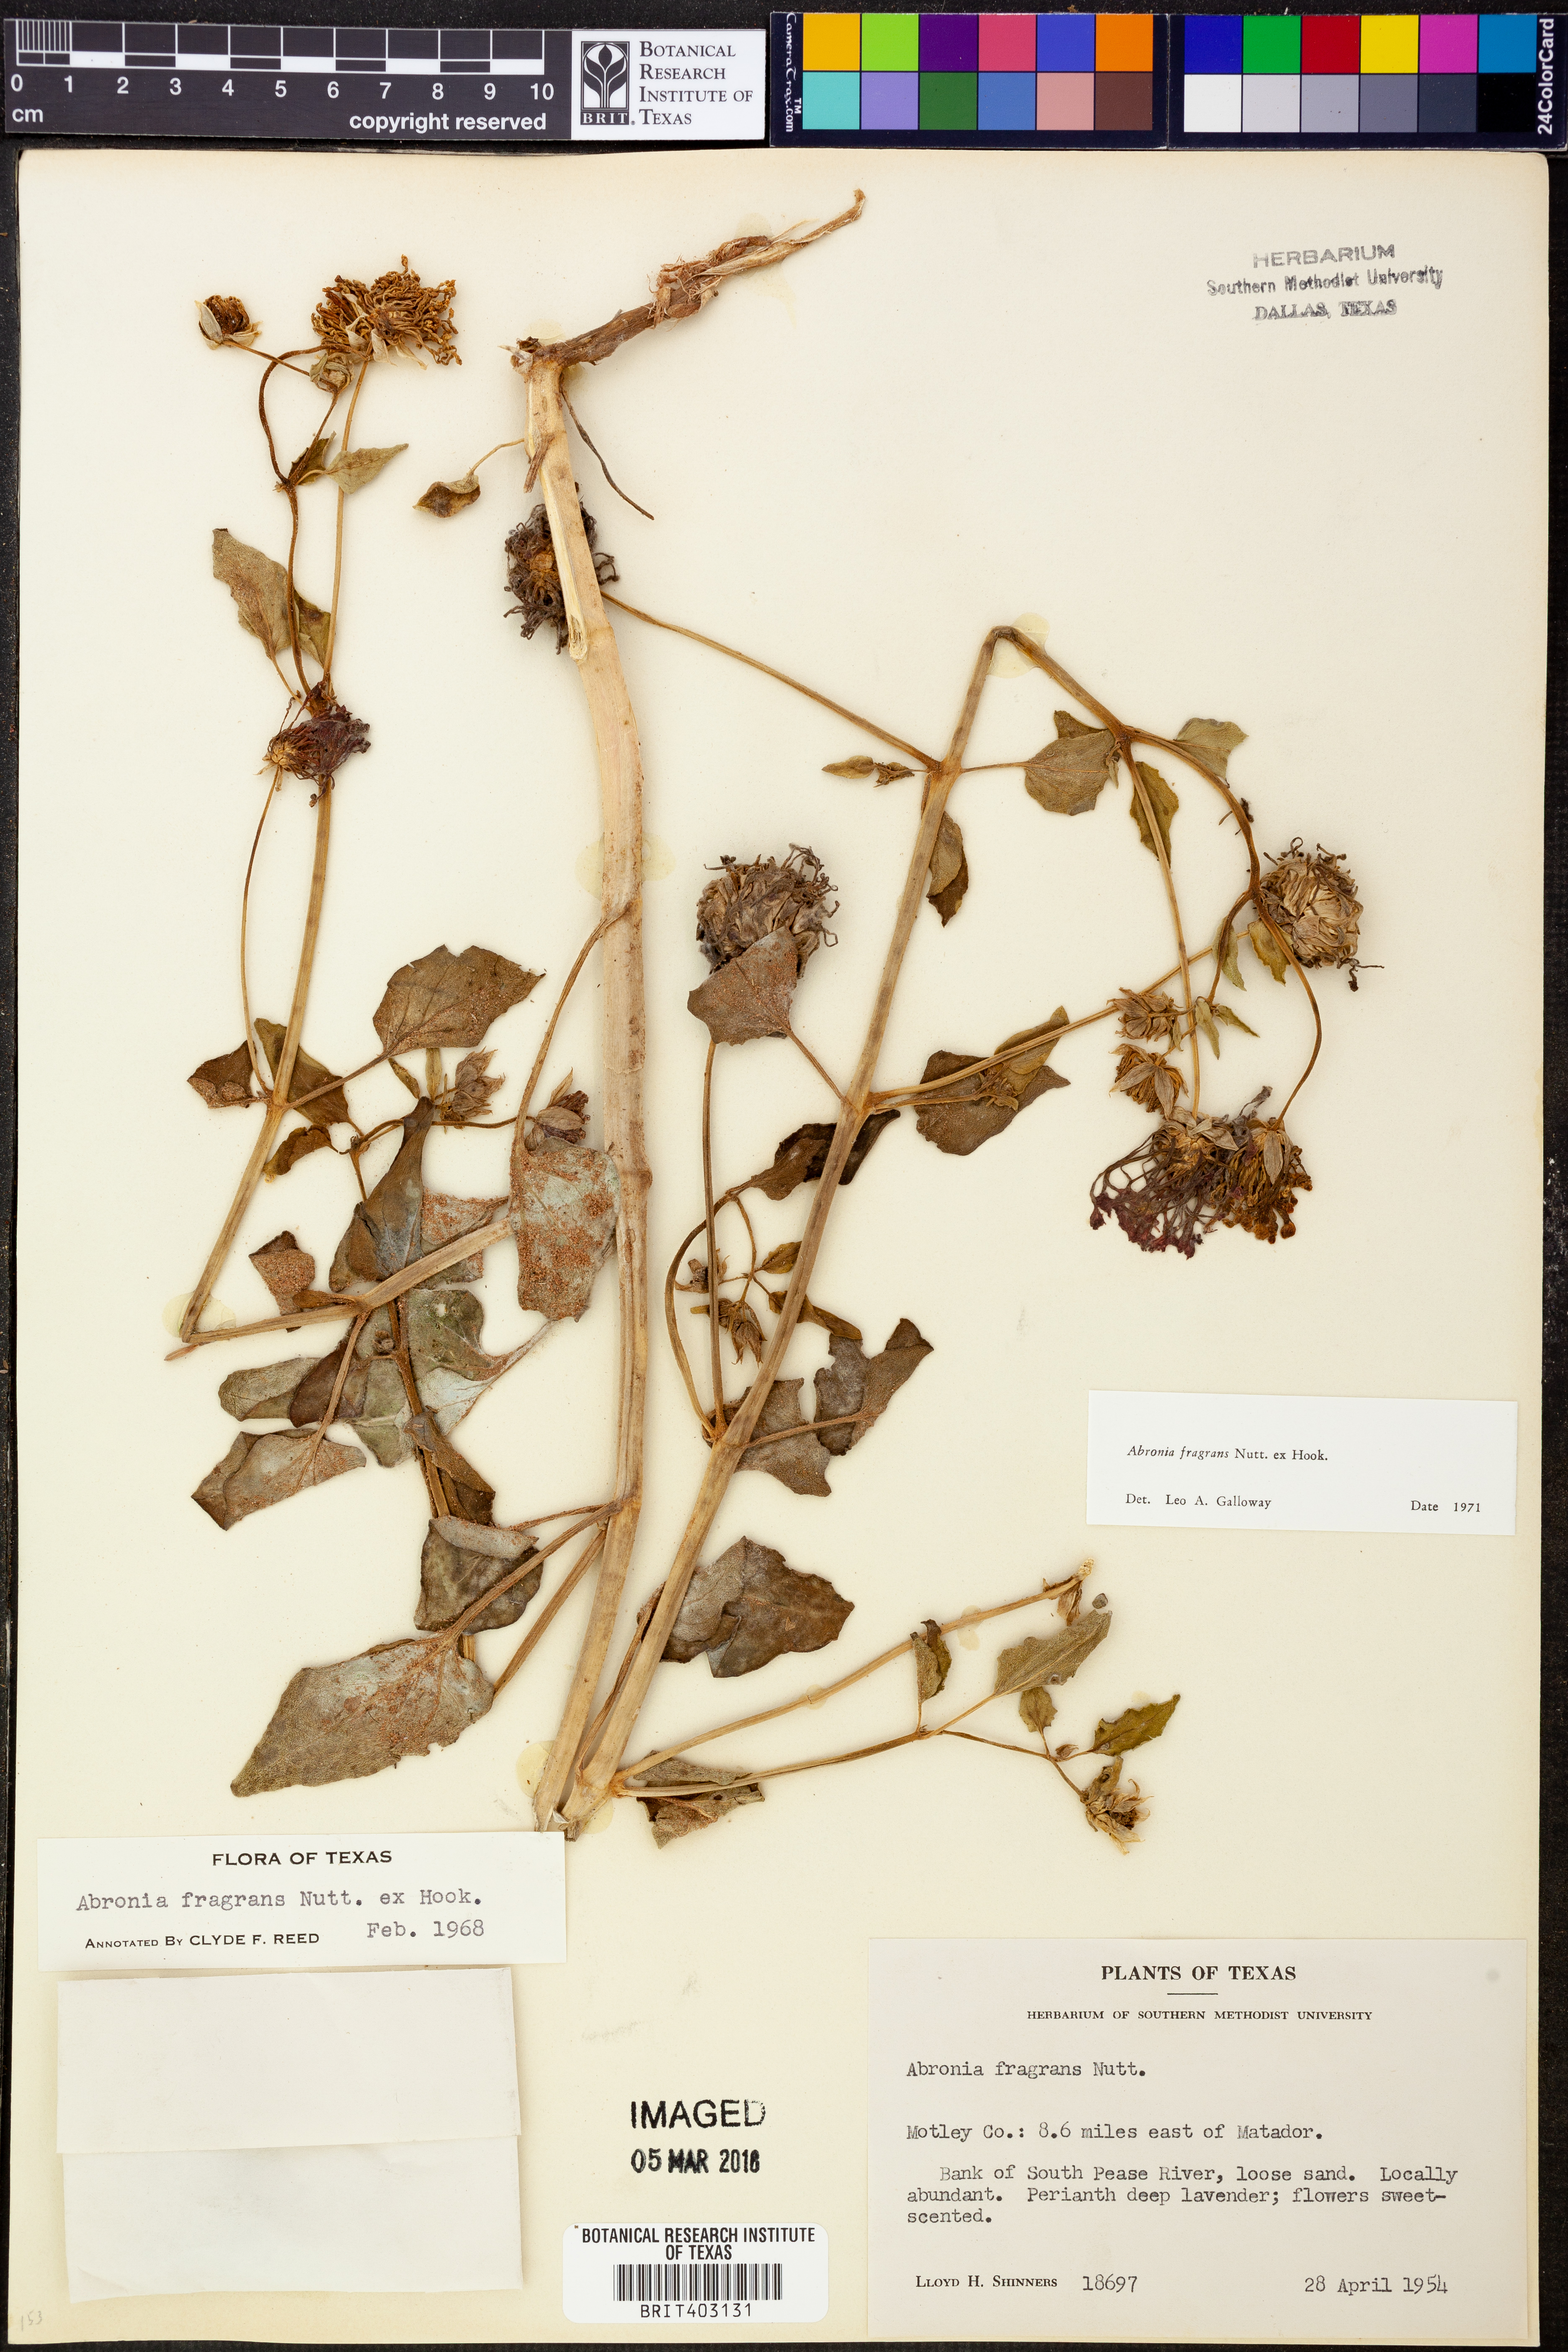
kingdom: Plantae
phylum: Tracheophyta
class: Magnoliopsida
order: Caryophyllales
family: Nyctaginaceae
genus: Abronia
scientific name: Abronia fragrans
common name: Fragrant sand-verbena
